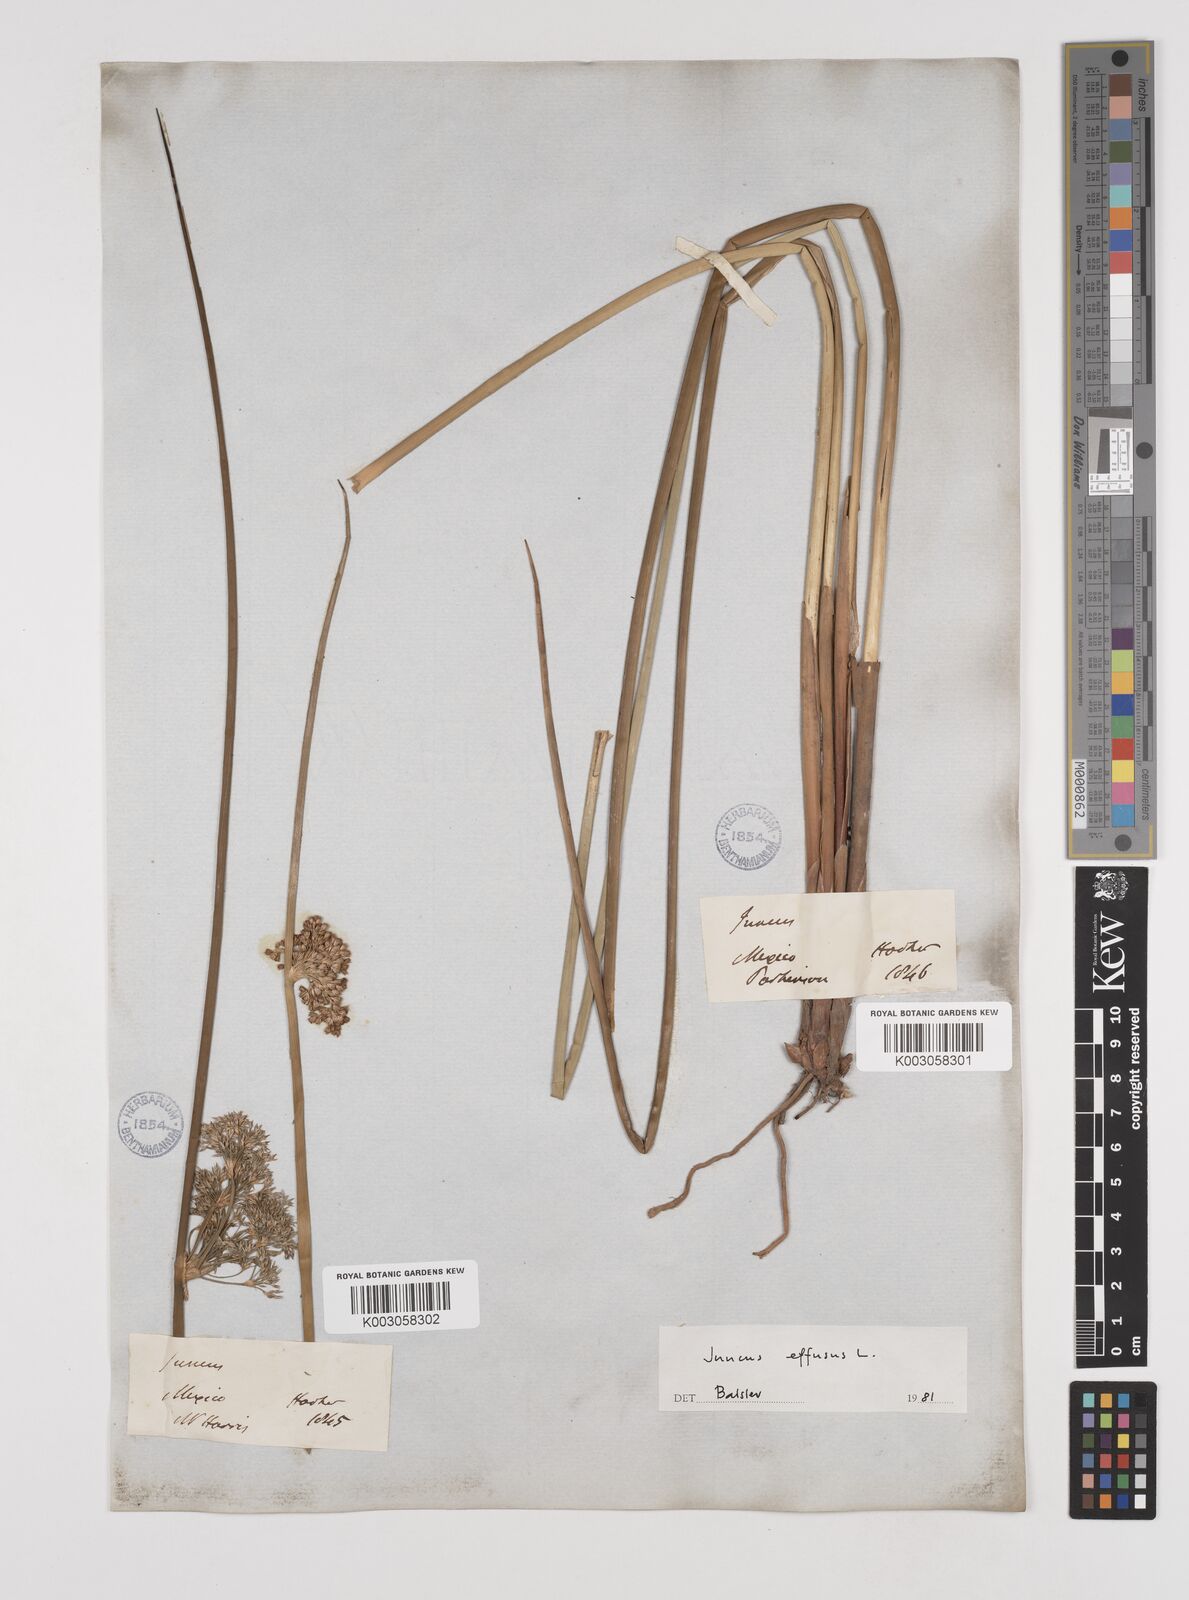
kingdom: Plantae
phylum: Tracheophyta
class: Liliopsida
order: Poales
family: Juncaceae
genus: Juncus
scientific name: Juncus effusus
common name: Soft rush
